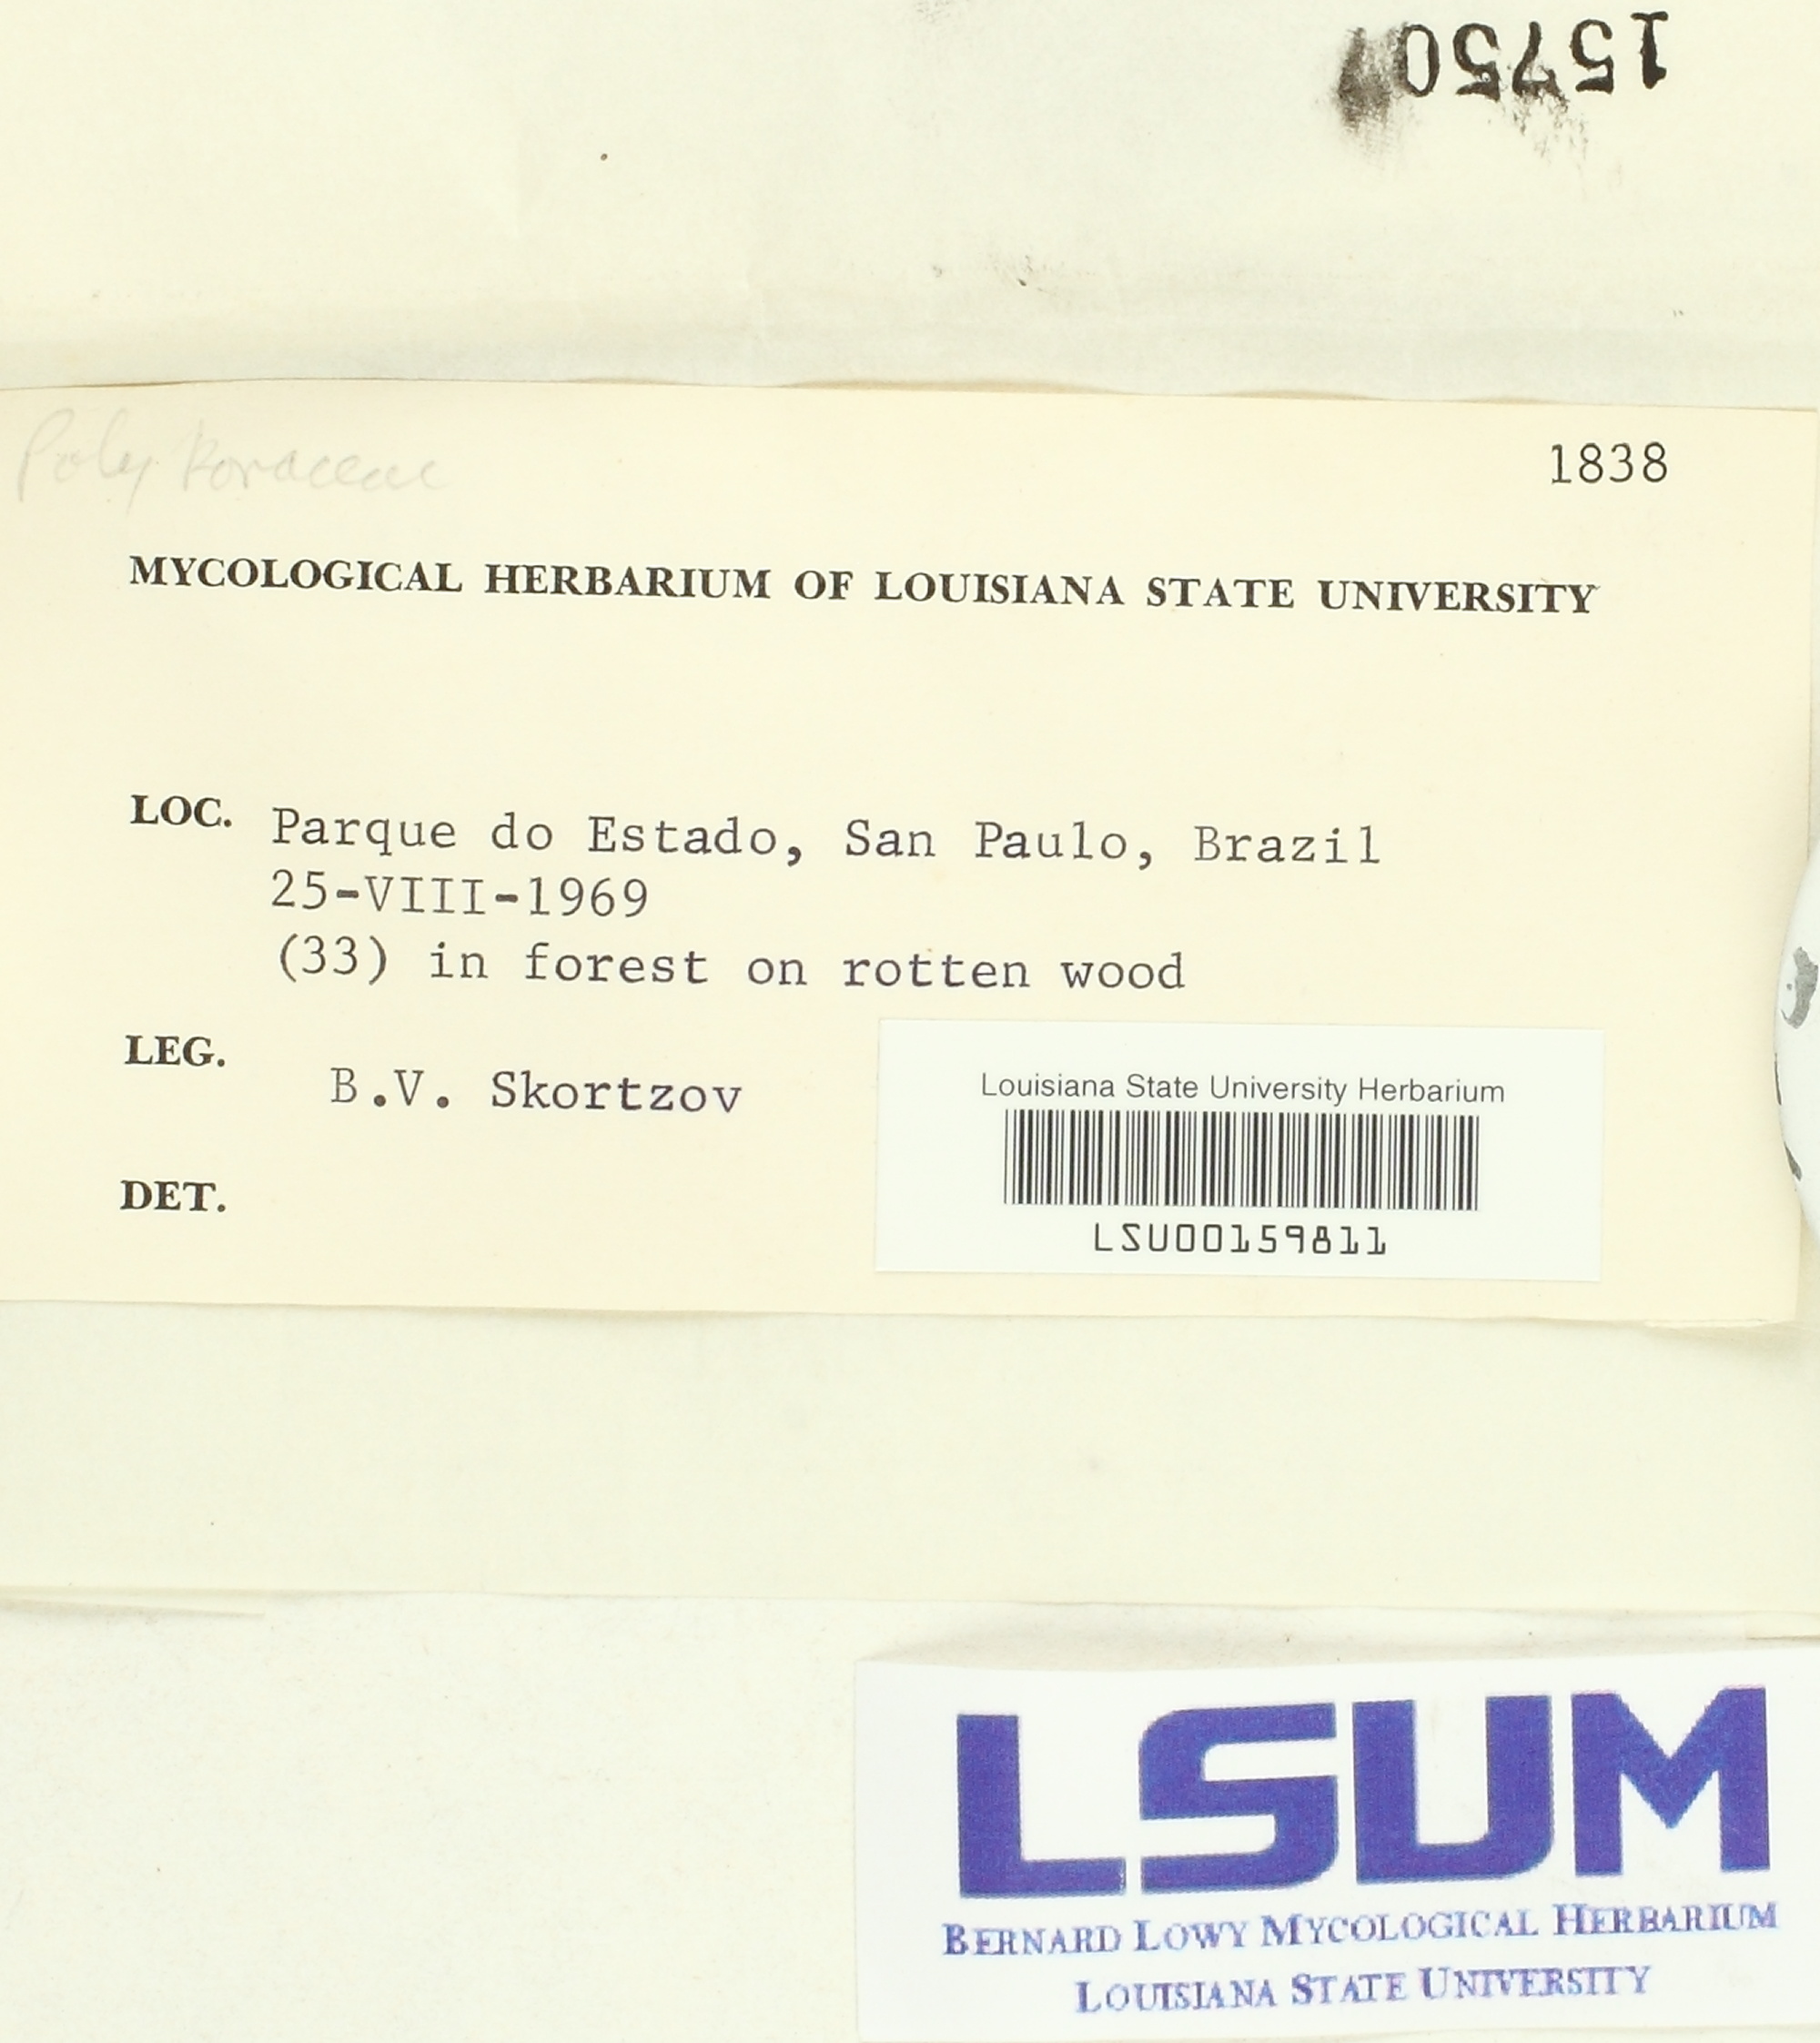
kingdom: Fungi
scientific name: Fungi
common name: Fungi
